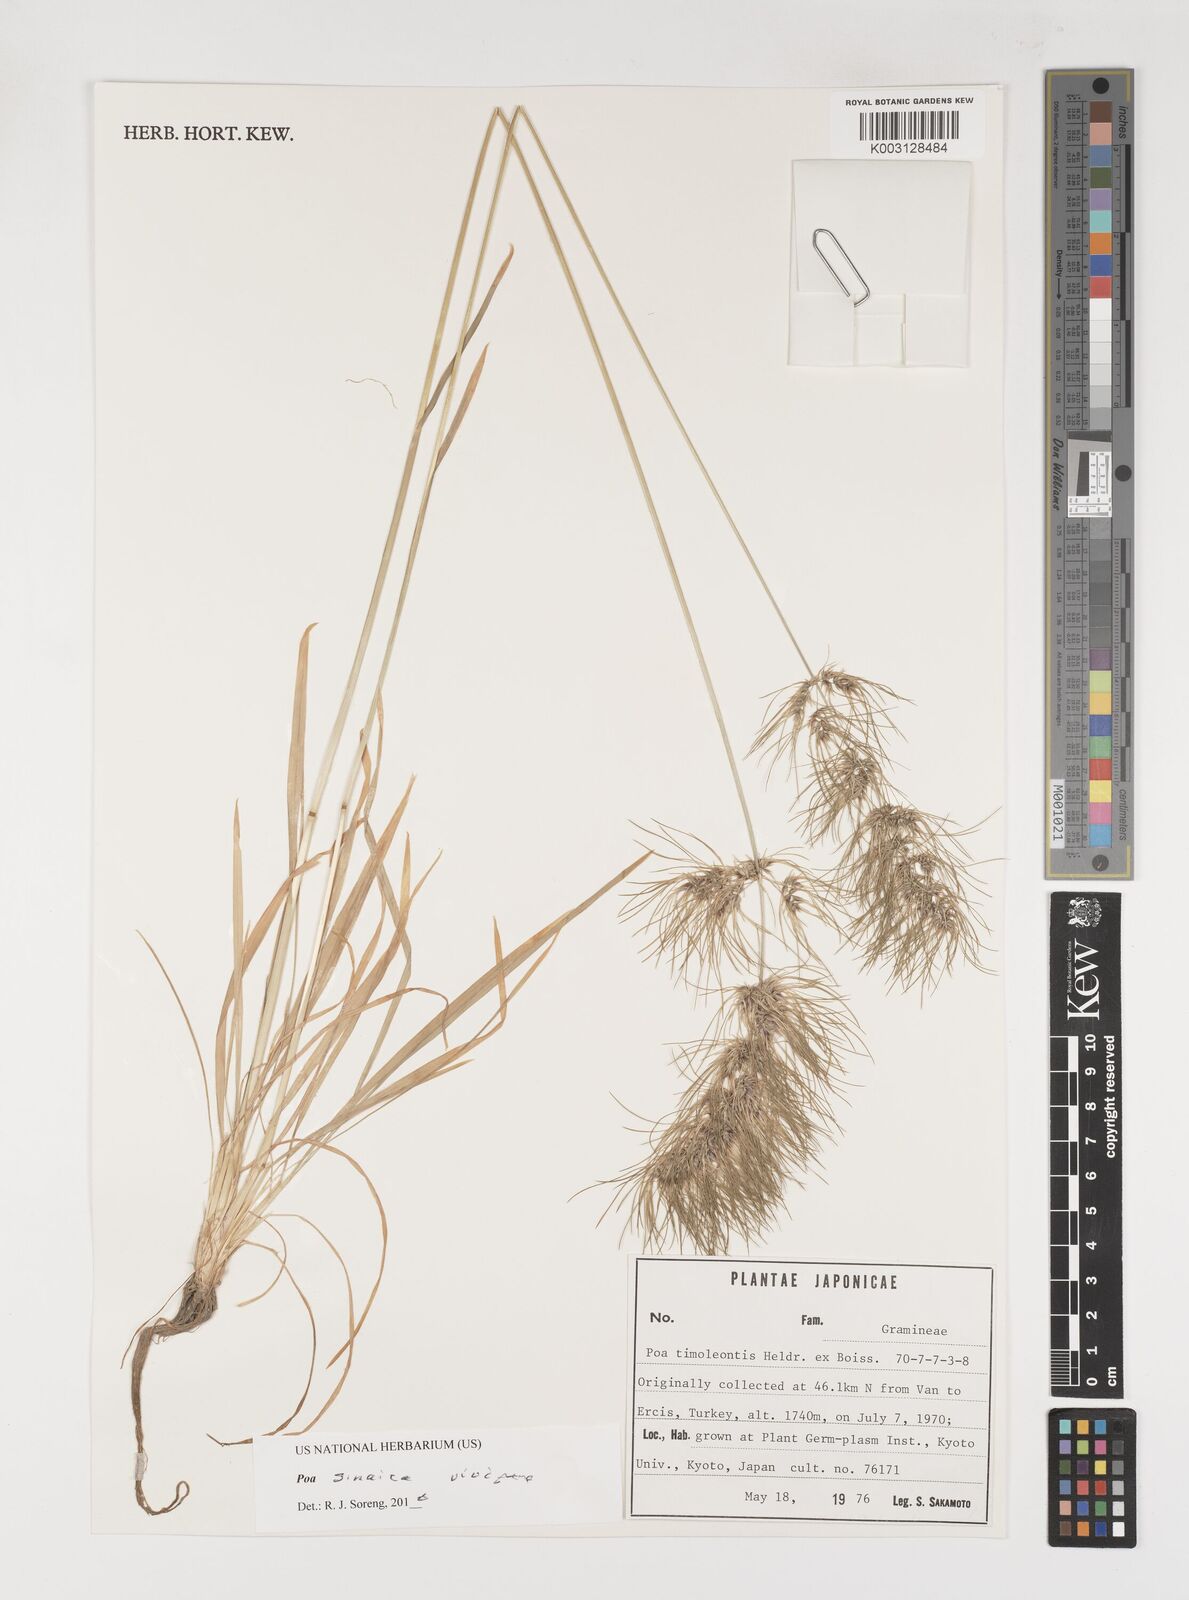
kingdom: Plantae
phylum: Tracheophyta
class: Liliopsida
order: Poales
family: Poaceae
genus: Poa
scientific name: Poa sinaica
